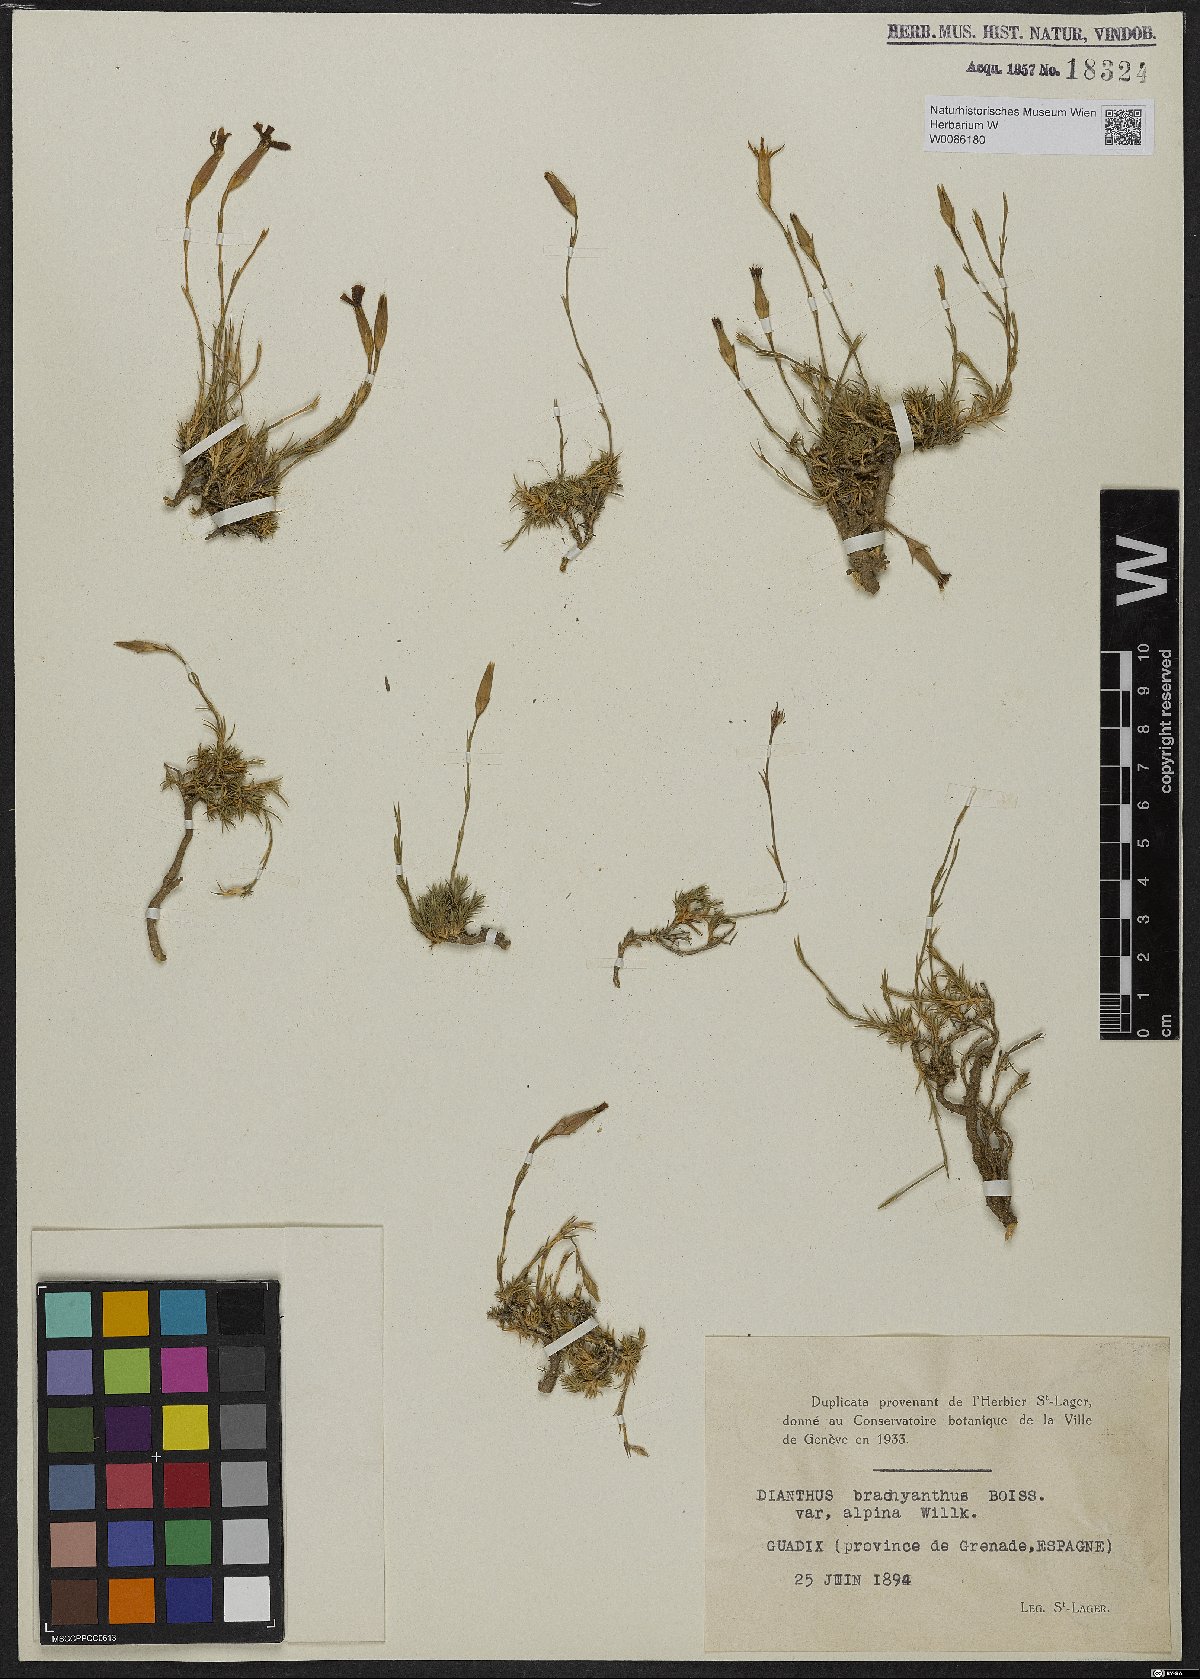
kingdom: Plantae
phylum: Tracheophyta
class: Magnoliopsida
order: Caryophyllales
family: Caryophyllaceae
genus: Dianthus
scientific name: Dianthus subacaulis
